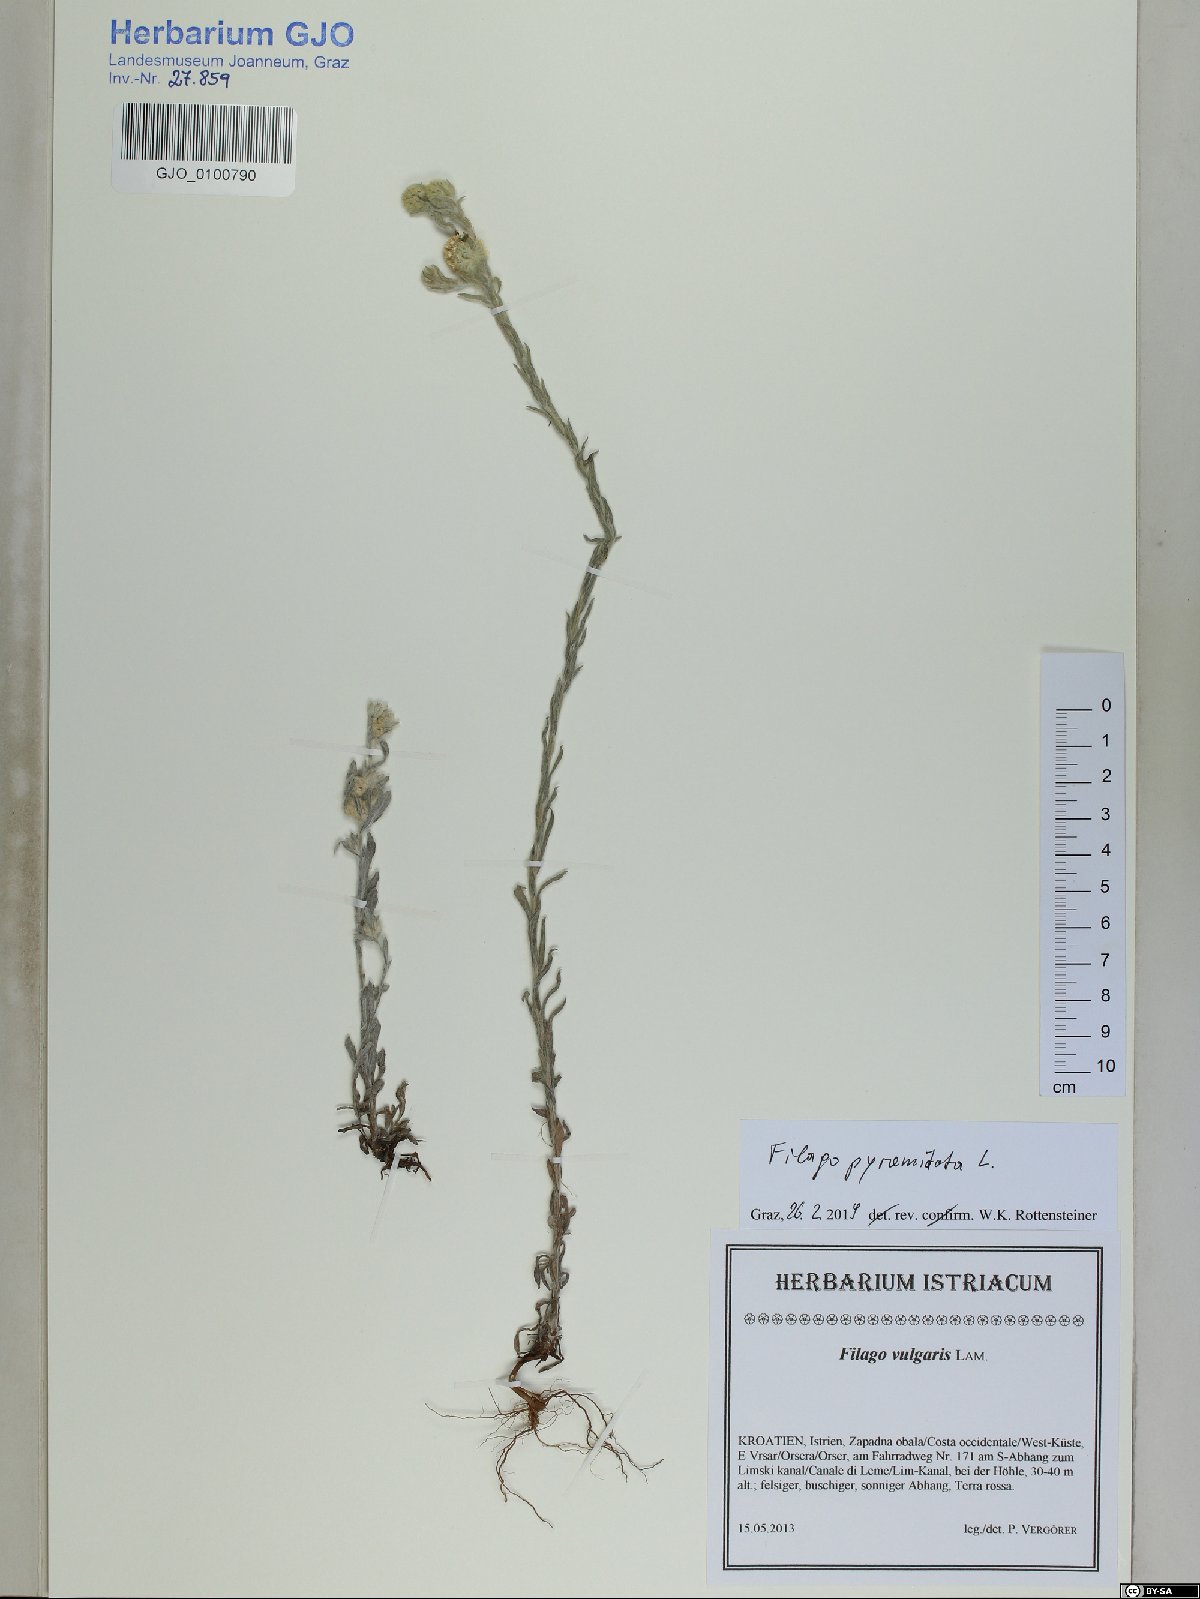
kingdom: Plantae
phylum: Tracheophyta
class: Magnoliopsida
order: Asterales
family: Asteraceae
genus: Filago
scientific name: Filago pyramidata
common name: Broad-leaved cudweed
